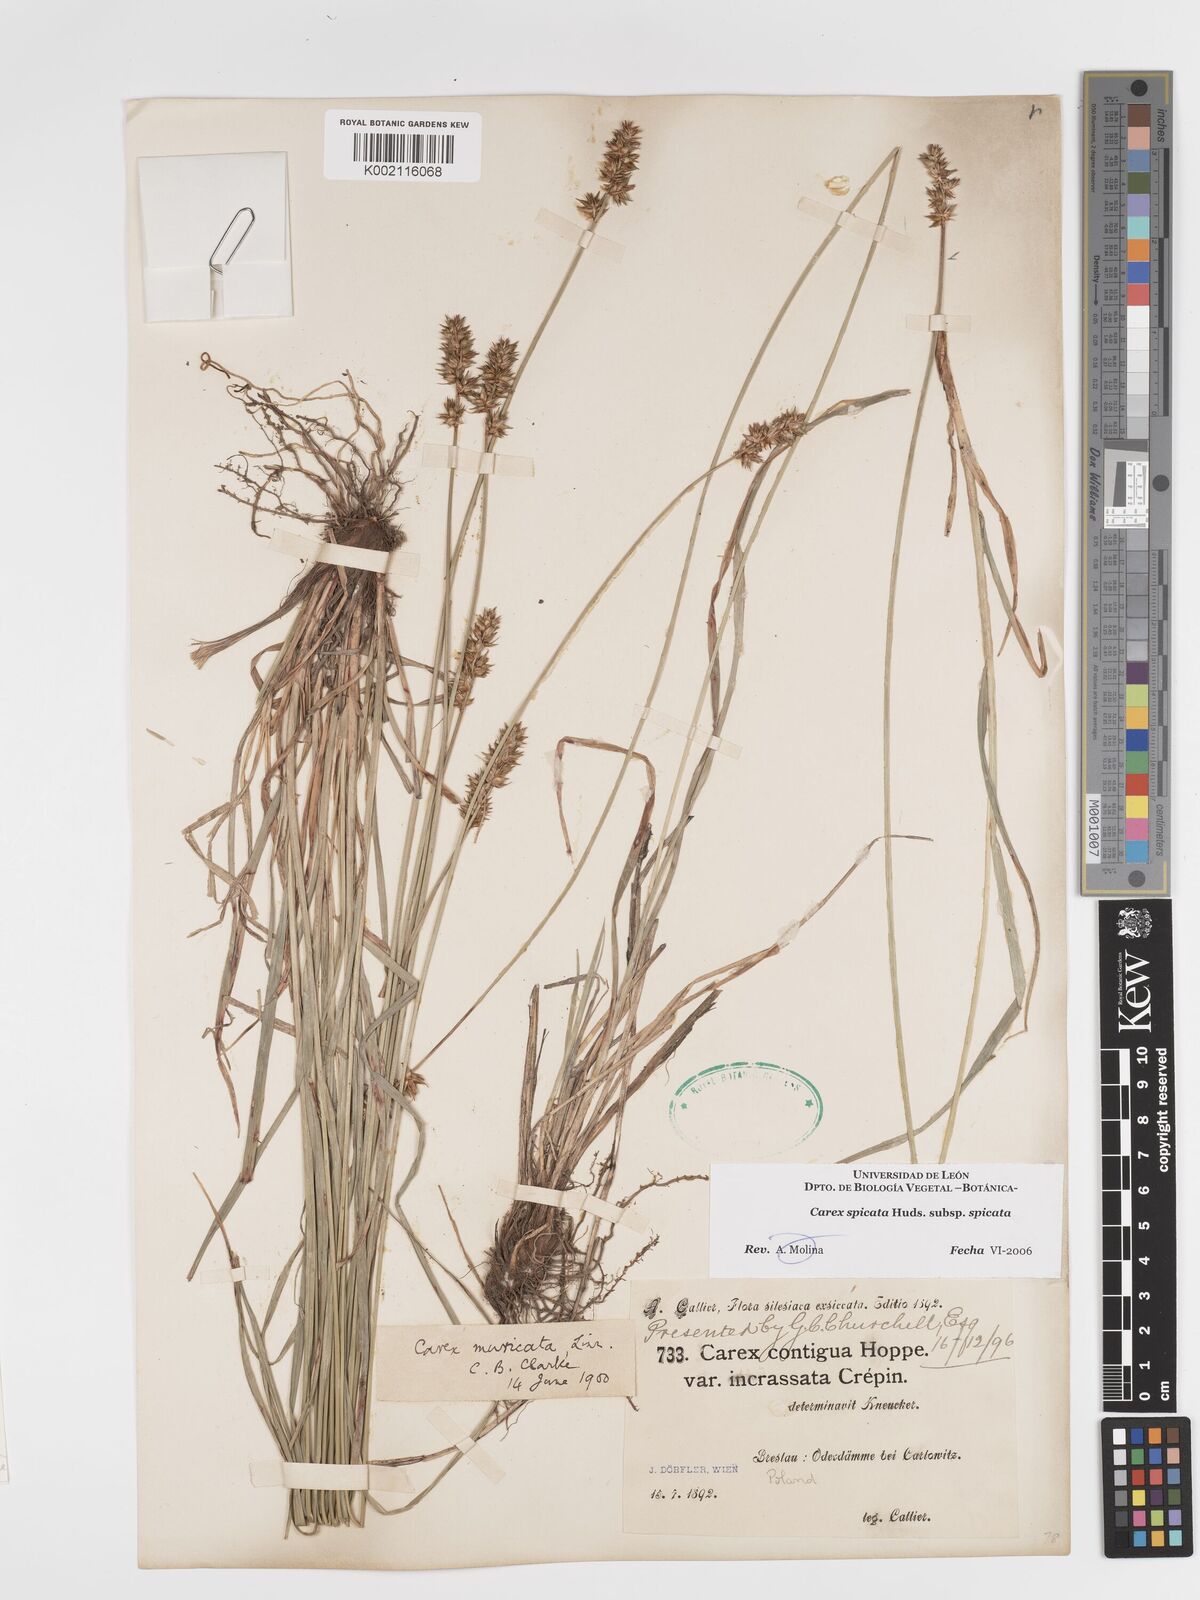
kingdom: Plantae
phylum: Tracheophyta
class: Liliopsida
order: Poales
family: Cyperaceae
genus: Carex
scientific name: Carex spicata
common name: Spiked sedge
